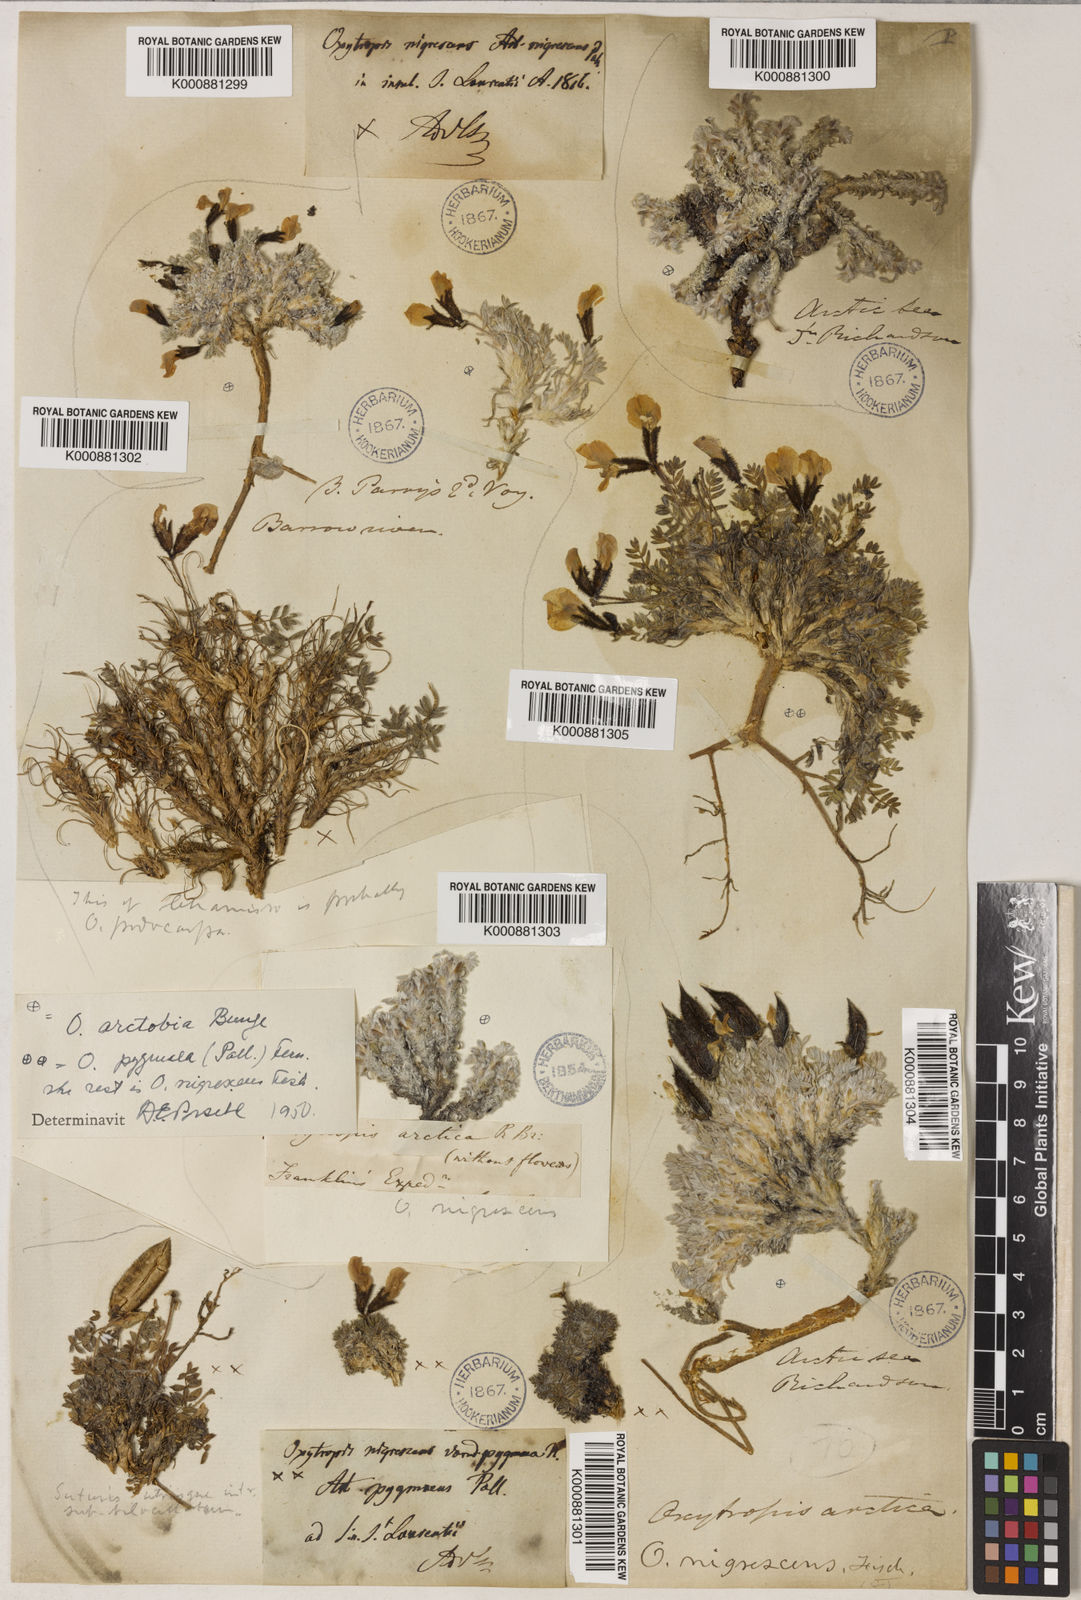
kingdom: Plantae
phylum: Tracheophyta
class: Magnoliopsida
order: Fabales
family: Fabaceae
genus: Oxytropis
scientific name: Oxytropis nigrescens
